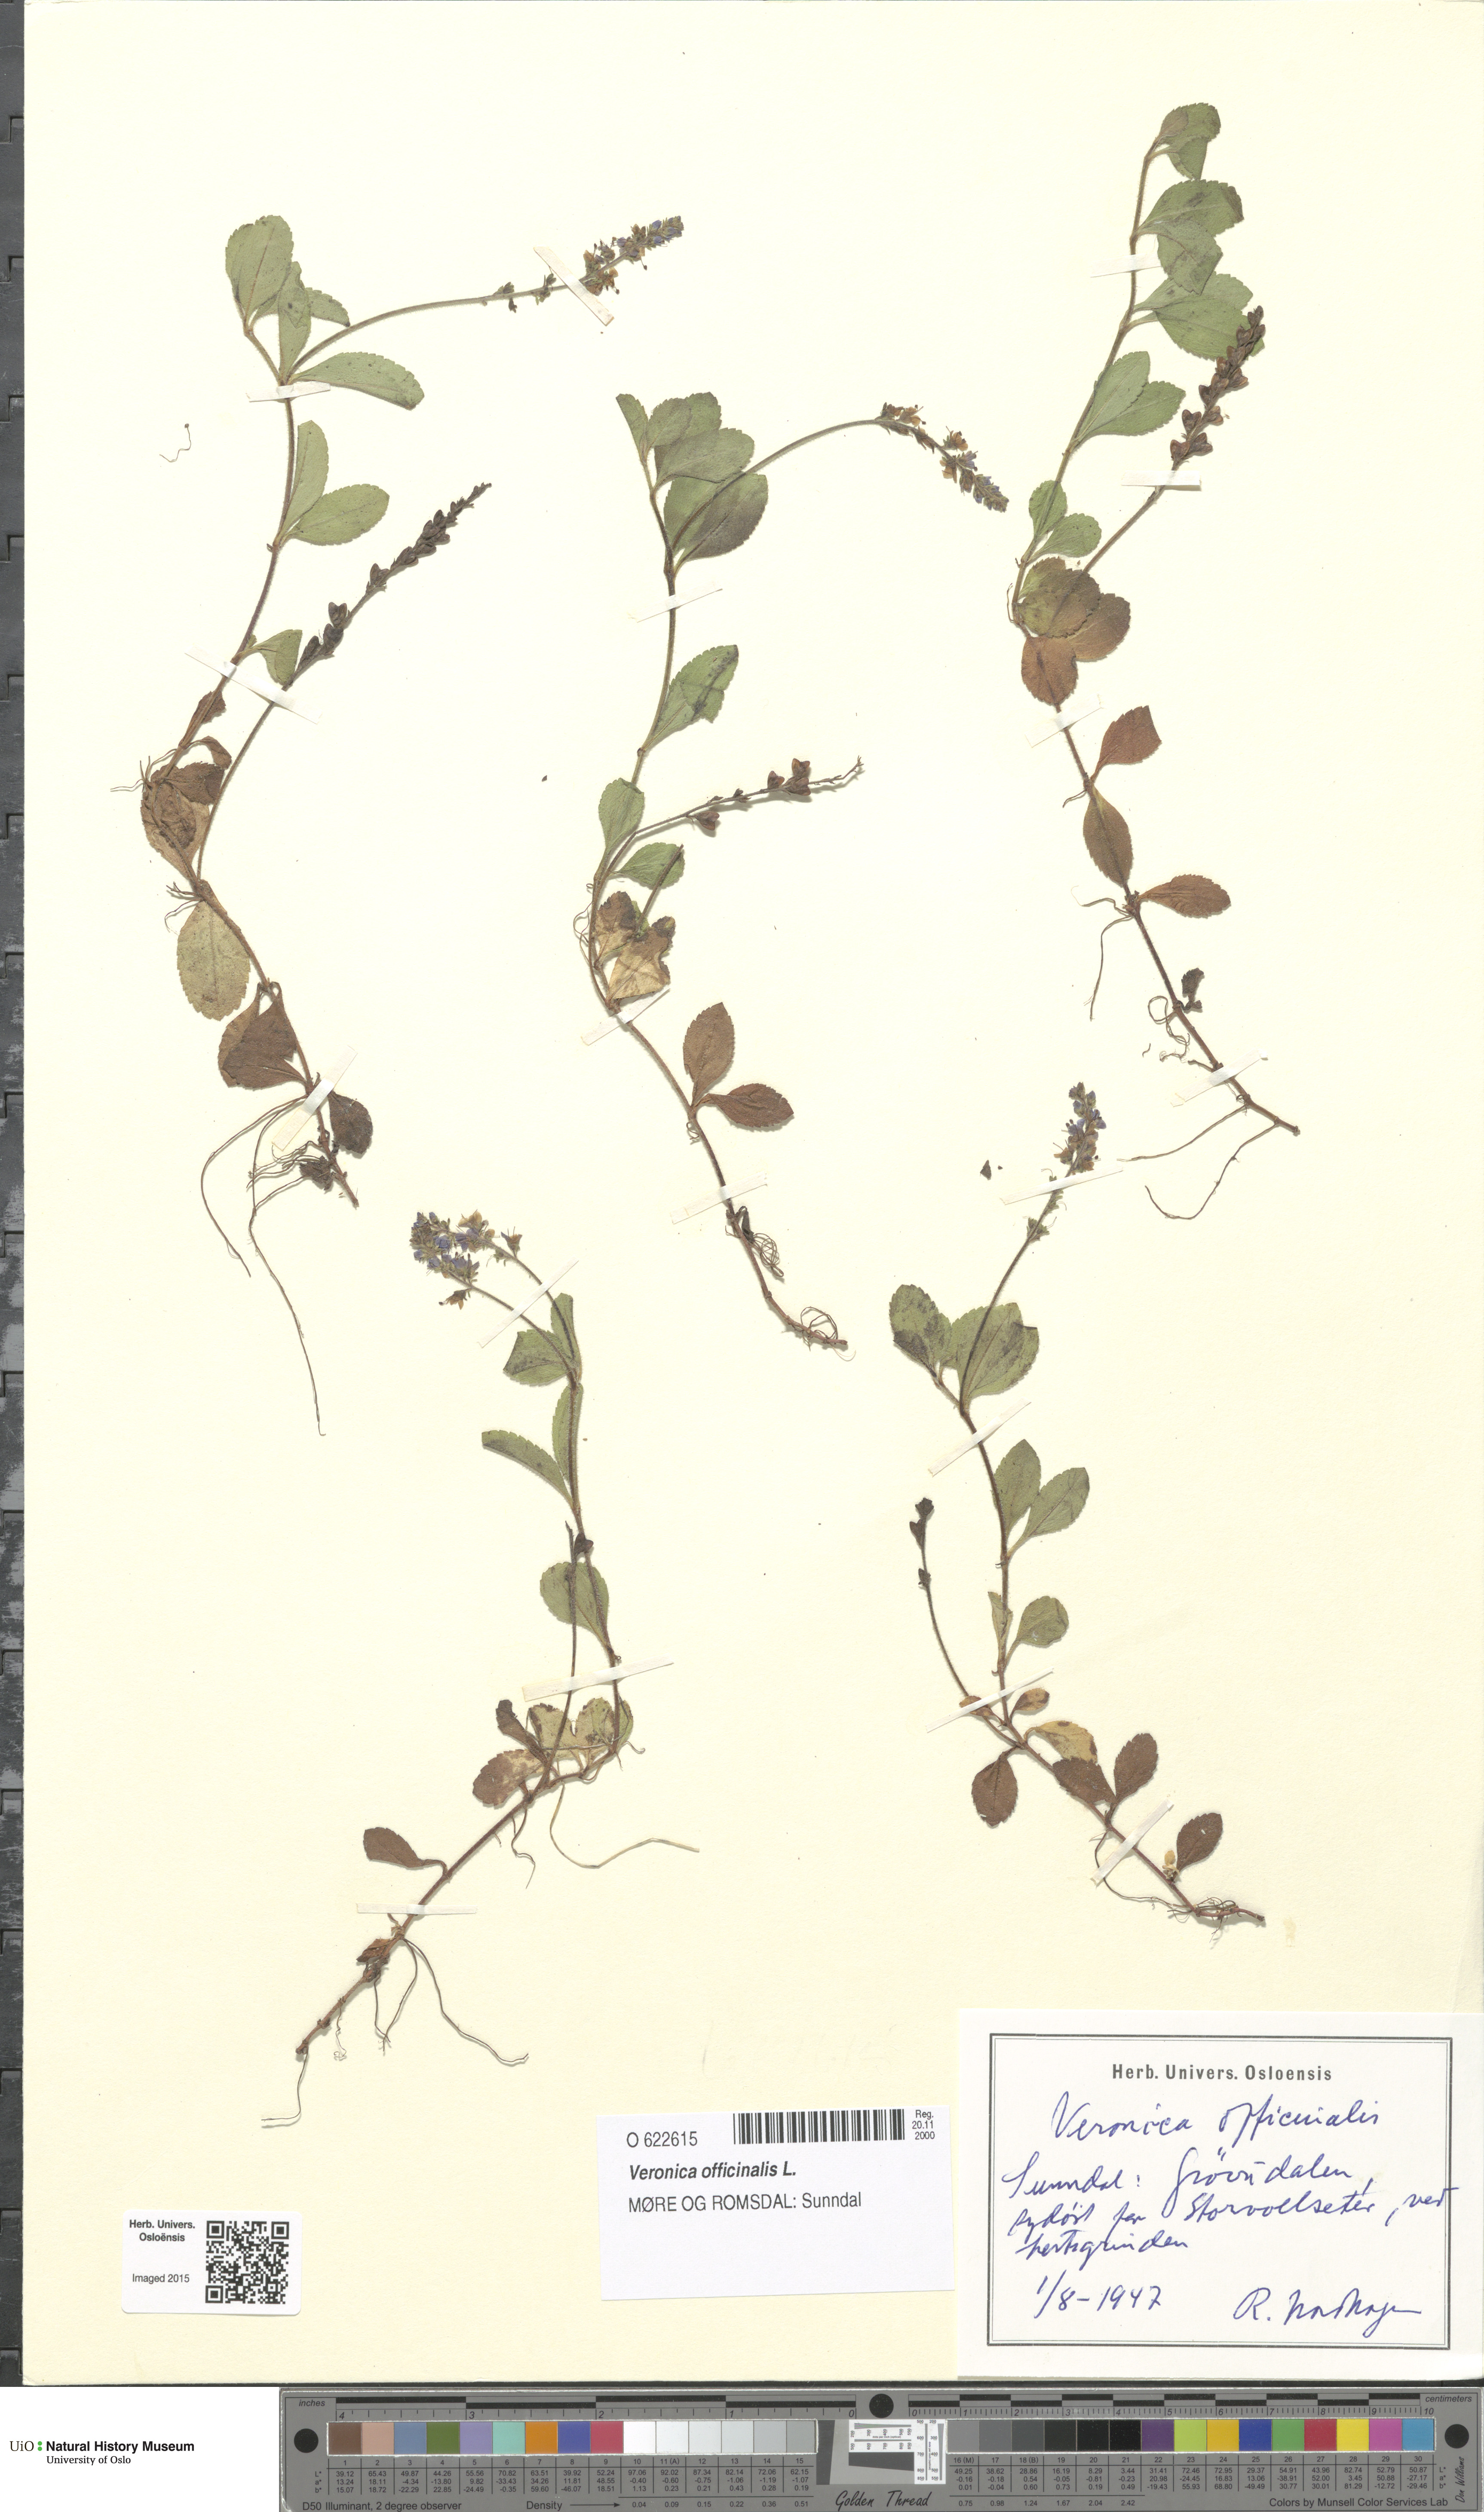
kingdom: Plantae
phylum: Tracheophyta
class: Magnoliopsida
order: Lamiales
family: Plantaginaceae
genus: Veronica
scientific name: Veronica officinalis
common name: Common speedwell
